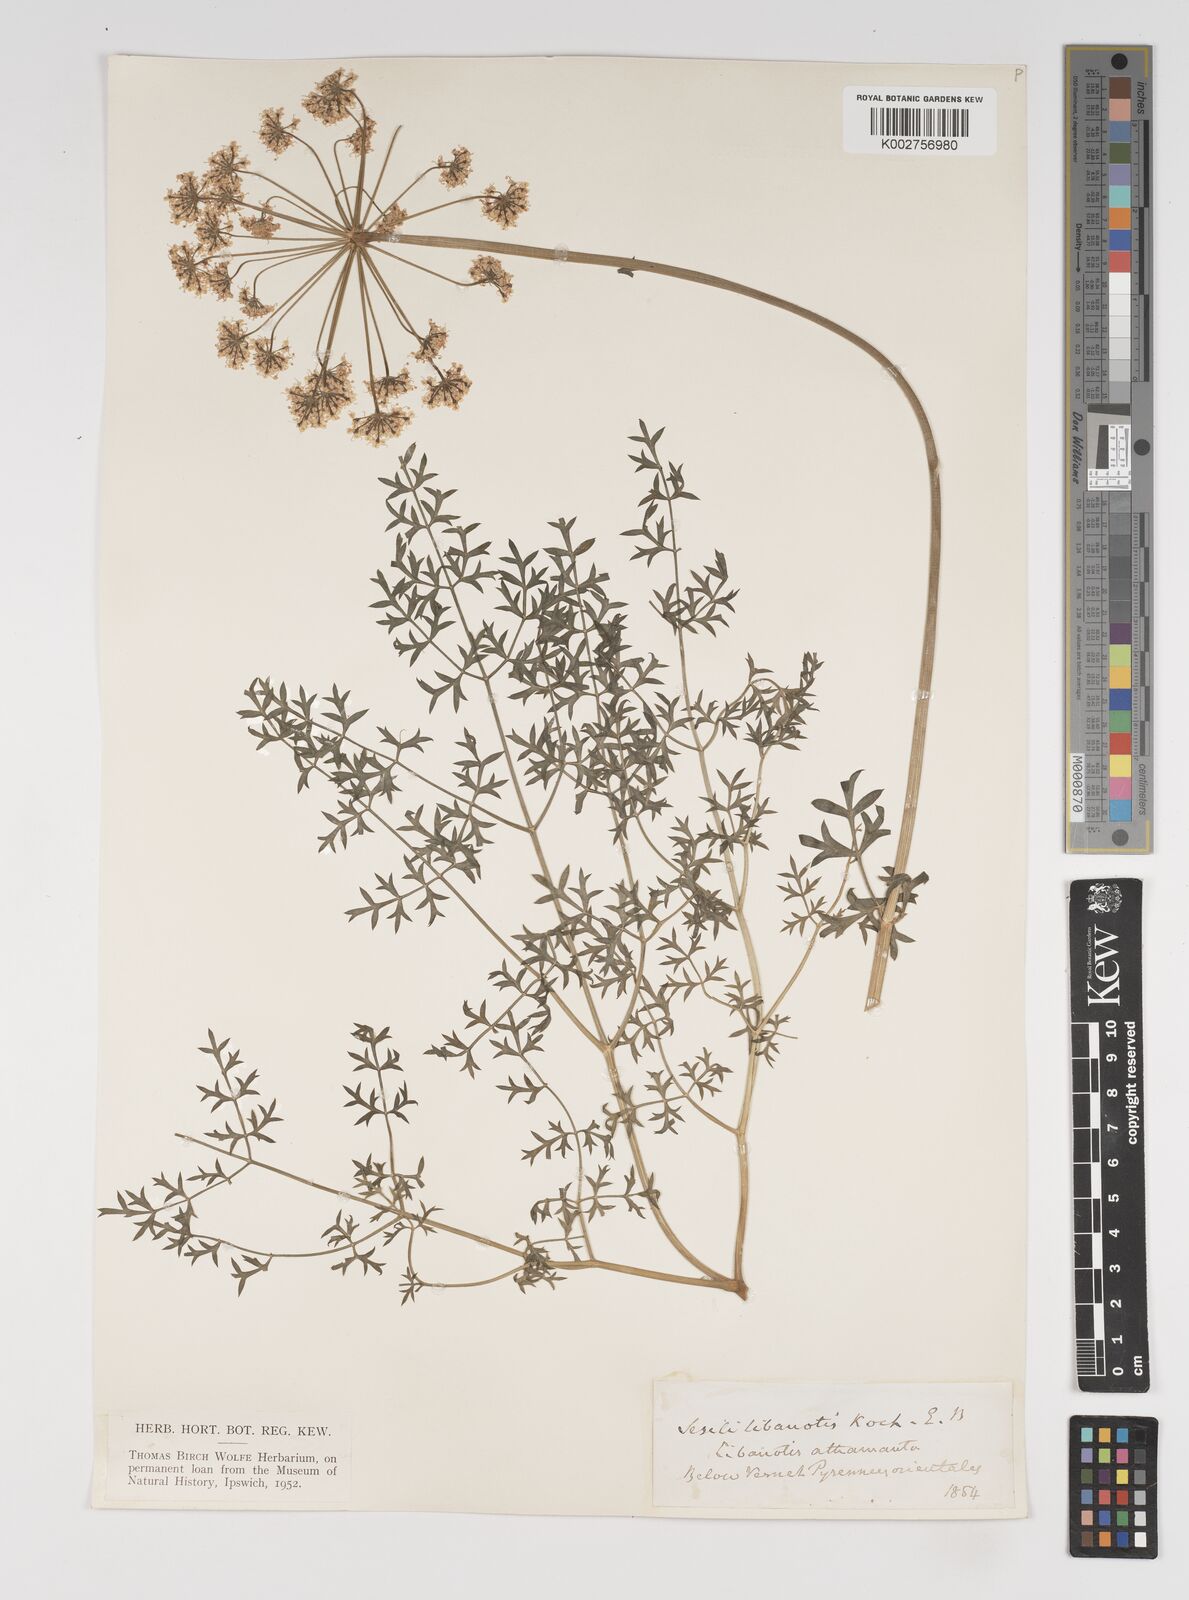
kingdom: Plantae
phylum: Tracheophyta
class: Magnoliopsida
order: Apiales
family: Apiaceae
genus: Seseli
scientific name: Seseli libanotis
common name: Mooncarrot
